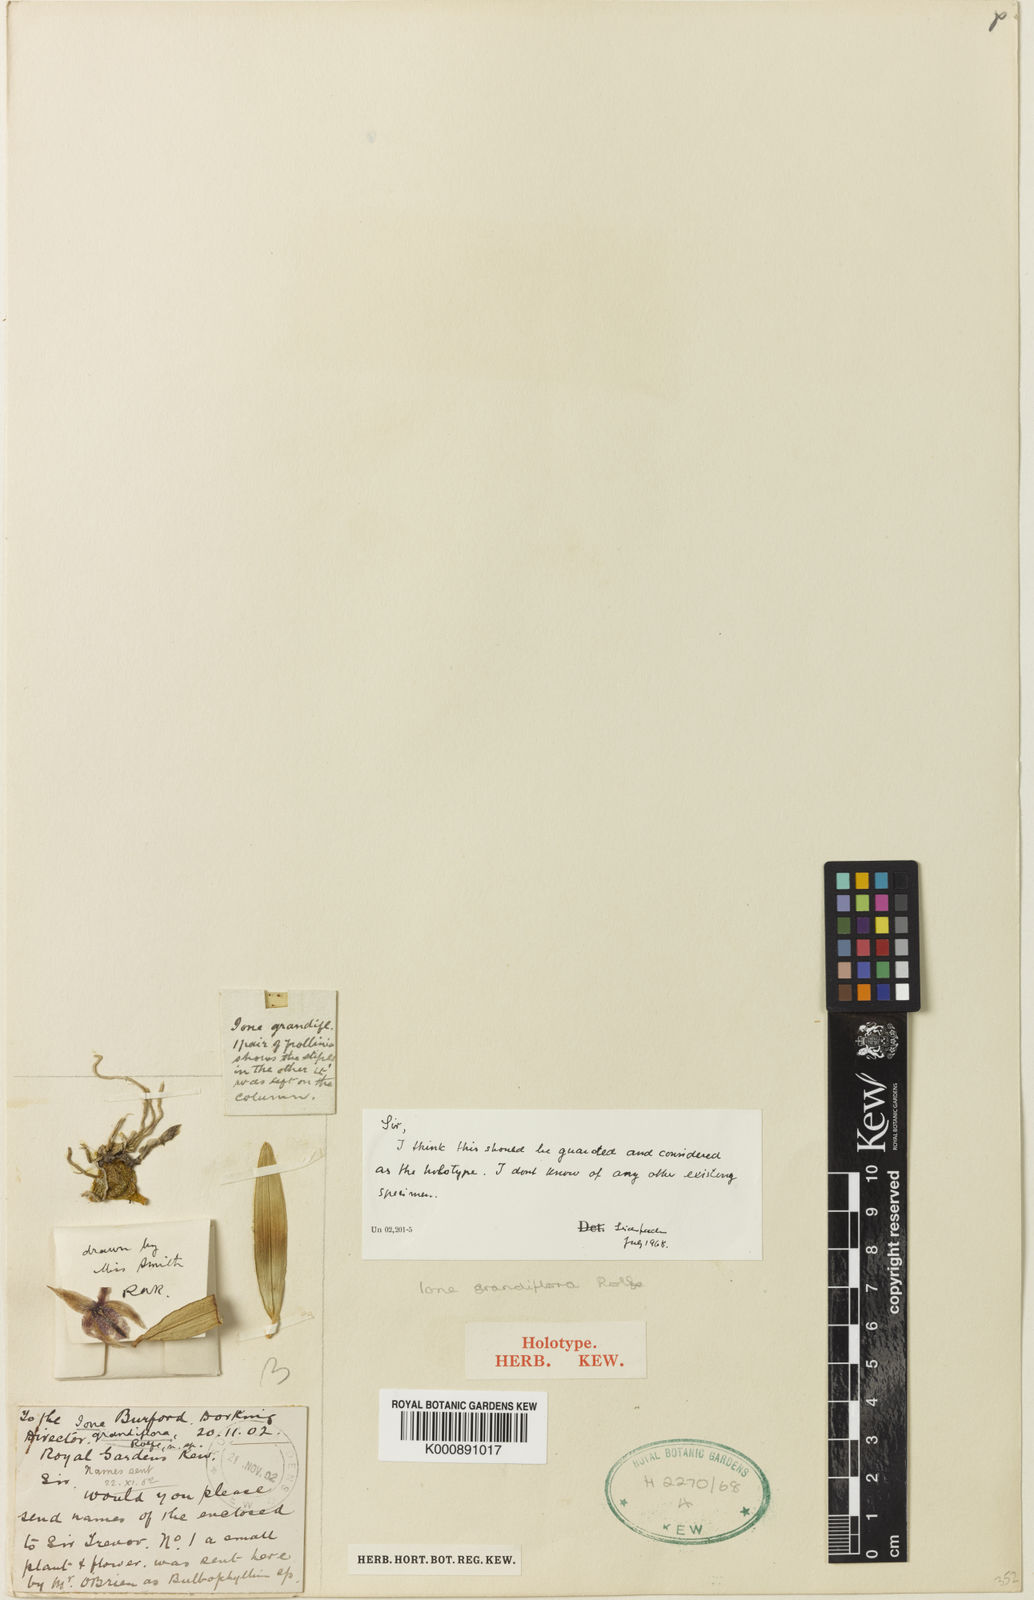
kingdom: Plantae
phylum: Tracheophyta
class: Liliopsida
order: Asparagales
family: Orchidaceae
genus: Bulbophyllum
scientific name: Bulbophyllum lopalanthum
